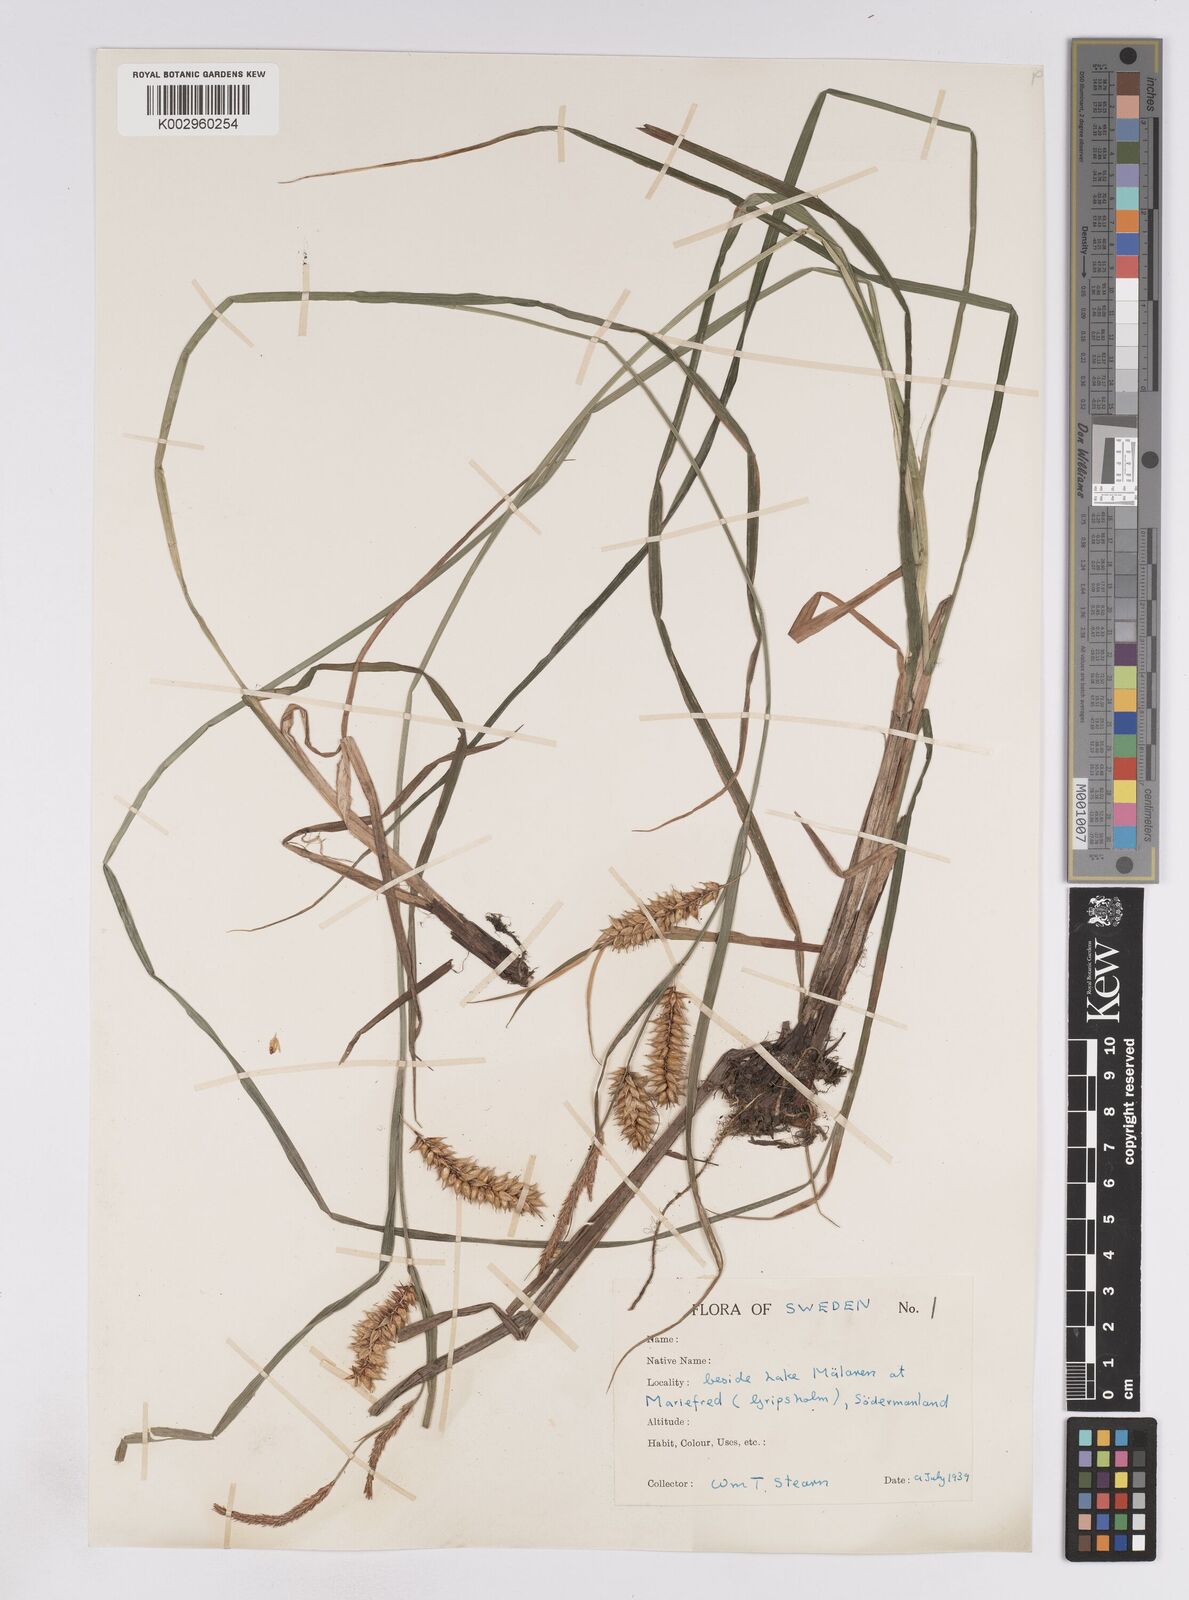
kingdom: Plantae
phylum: Tracheophyta
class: Liliopsida
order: Poales
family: Cyperaceae
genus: Carex
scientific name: Carex vesicaria
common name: Bladder-sedge
